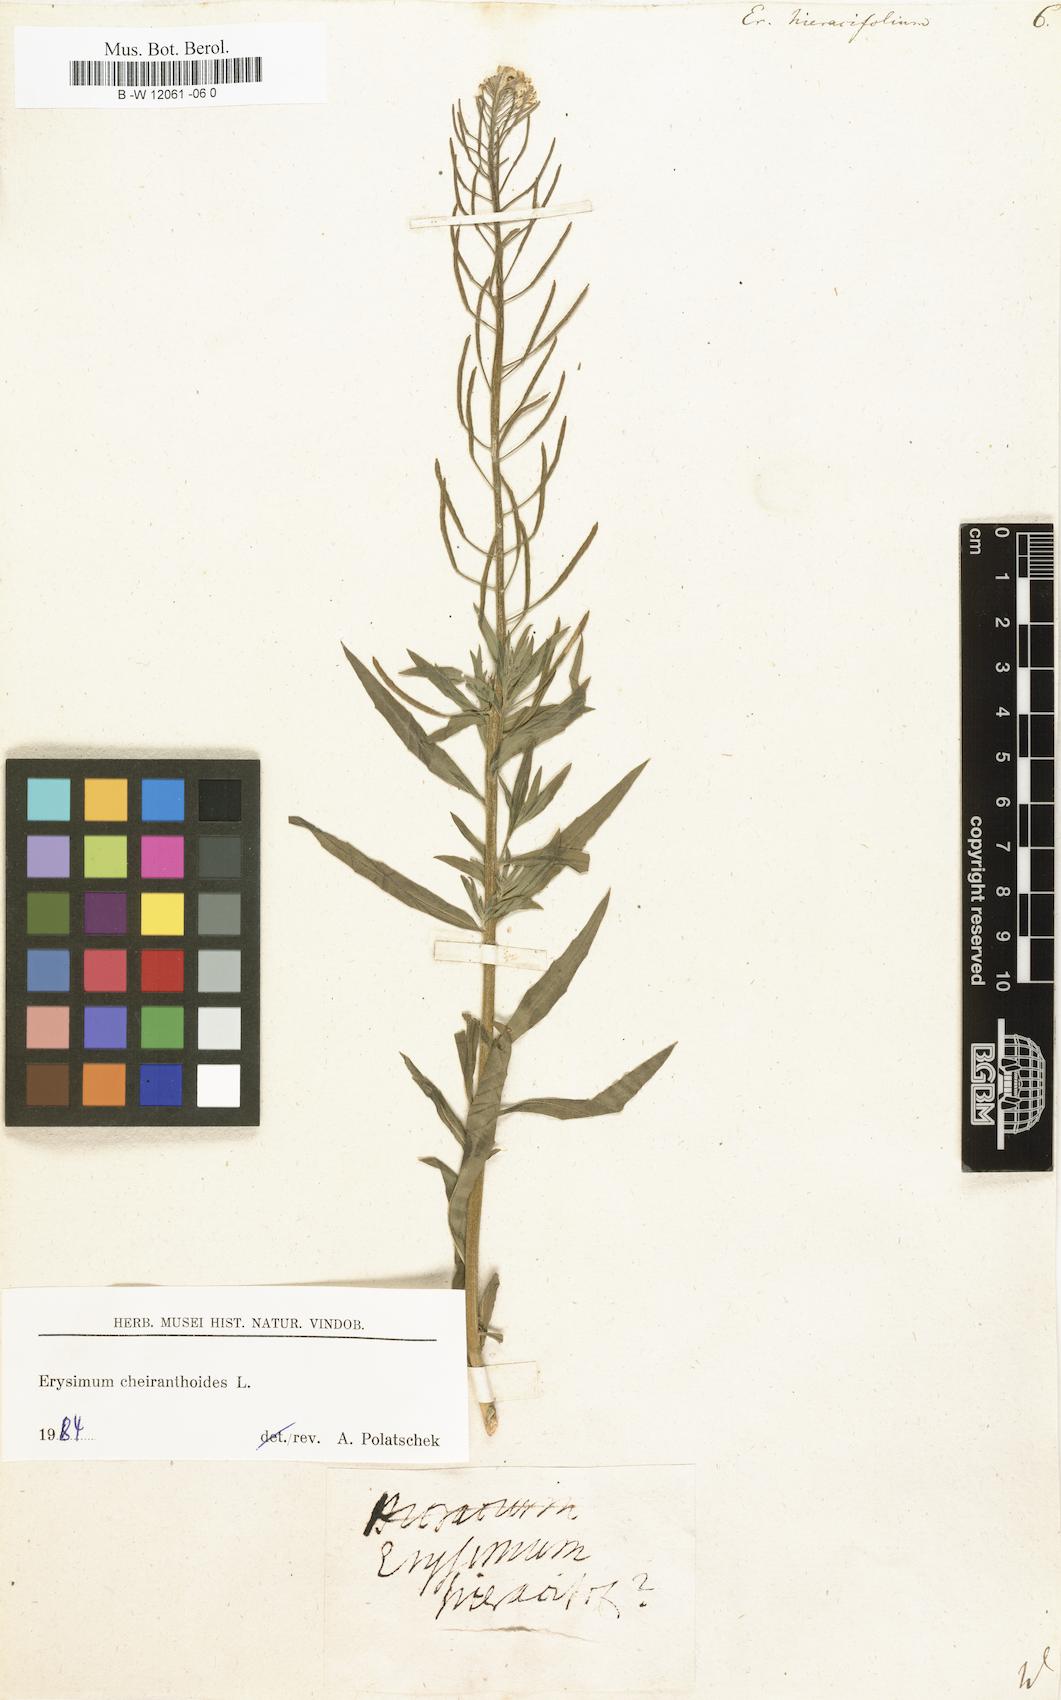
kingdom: Plantae
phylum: Tracheophyta
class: Magnoliopsida
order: Brassicales
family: Brassicaceae
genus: Erysimum
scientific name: Erysimum hieraciifolium
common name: European wallflower
